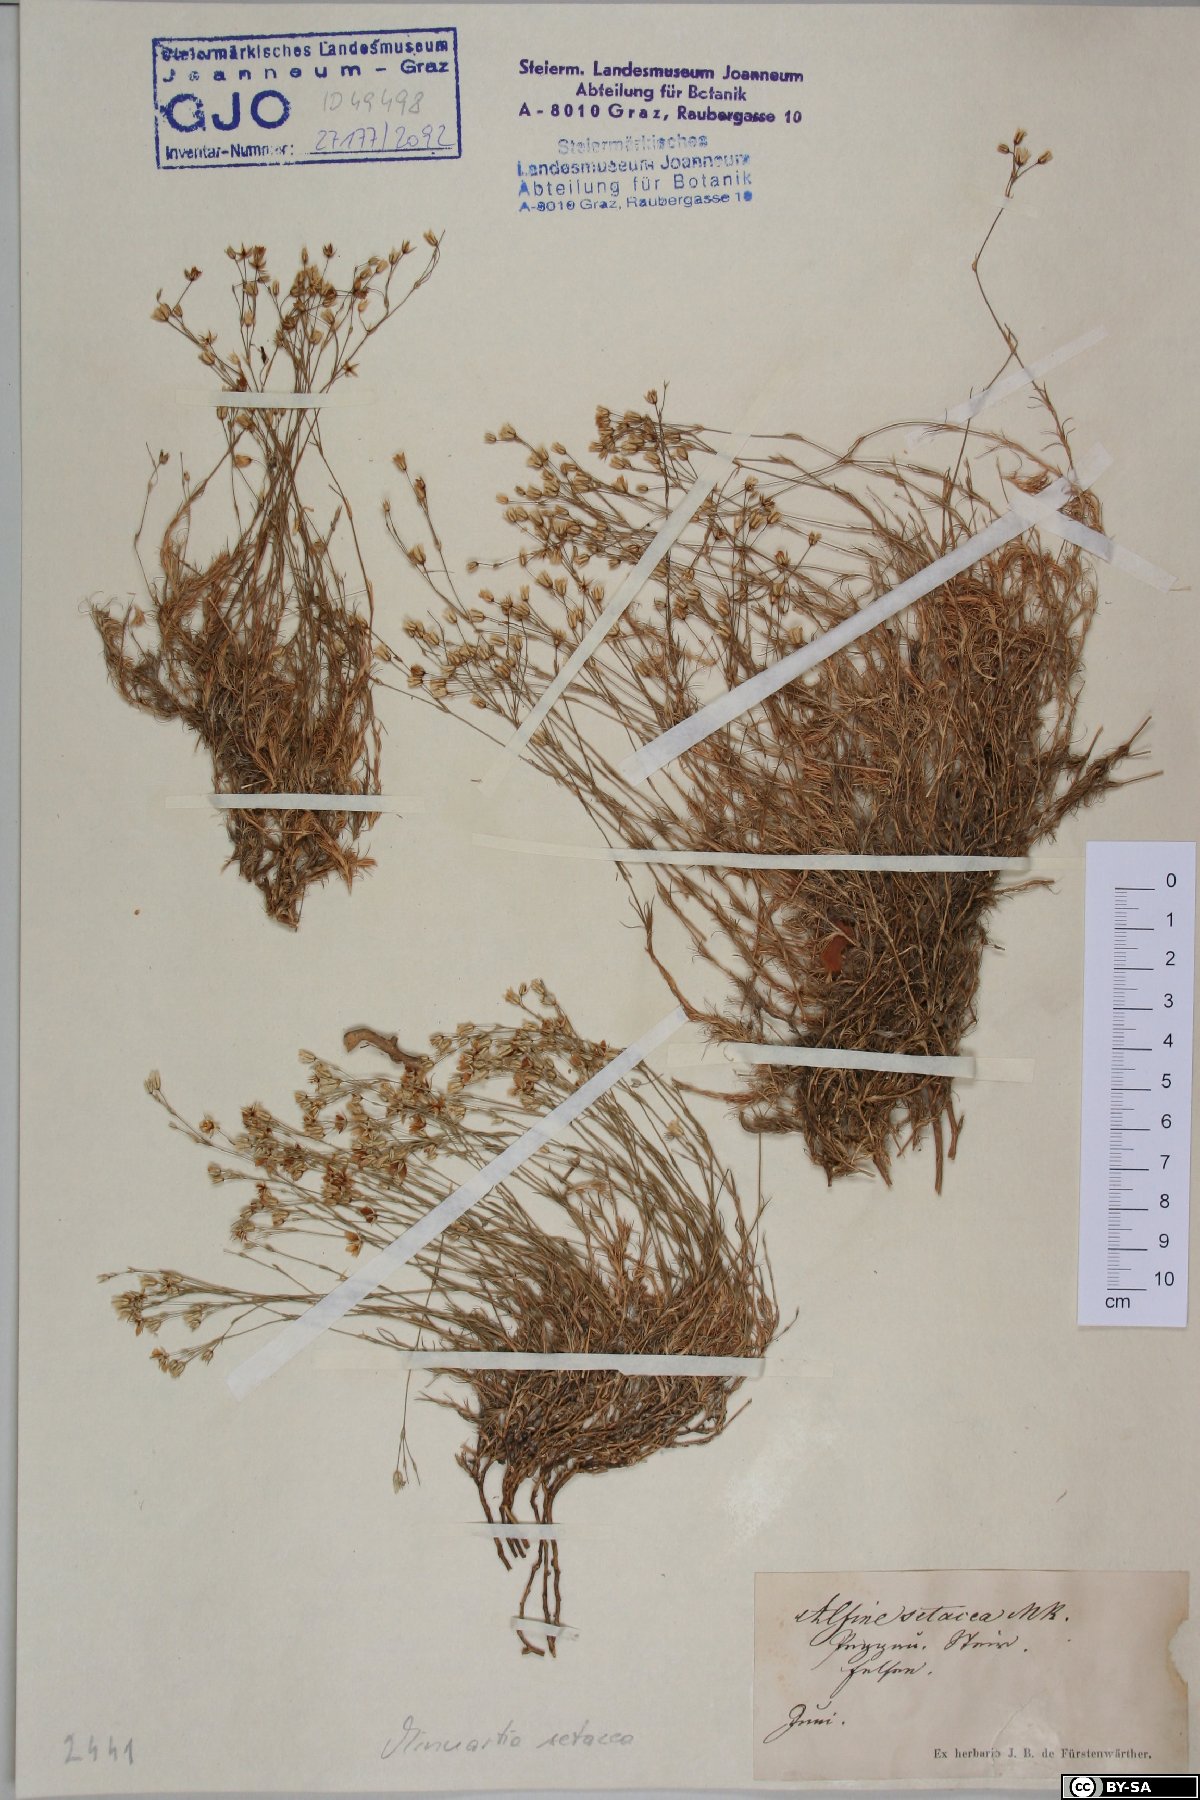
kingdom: Plantae
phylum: Tracheophyta
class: Magnoliopsida
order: Caryophyllales
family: Caryophyllaceae
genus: Minuartia
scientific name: Minuartia setacea
